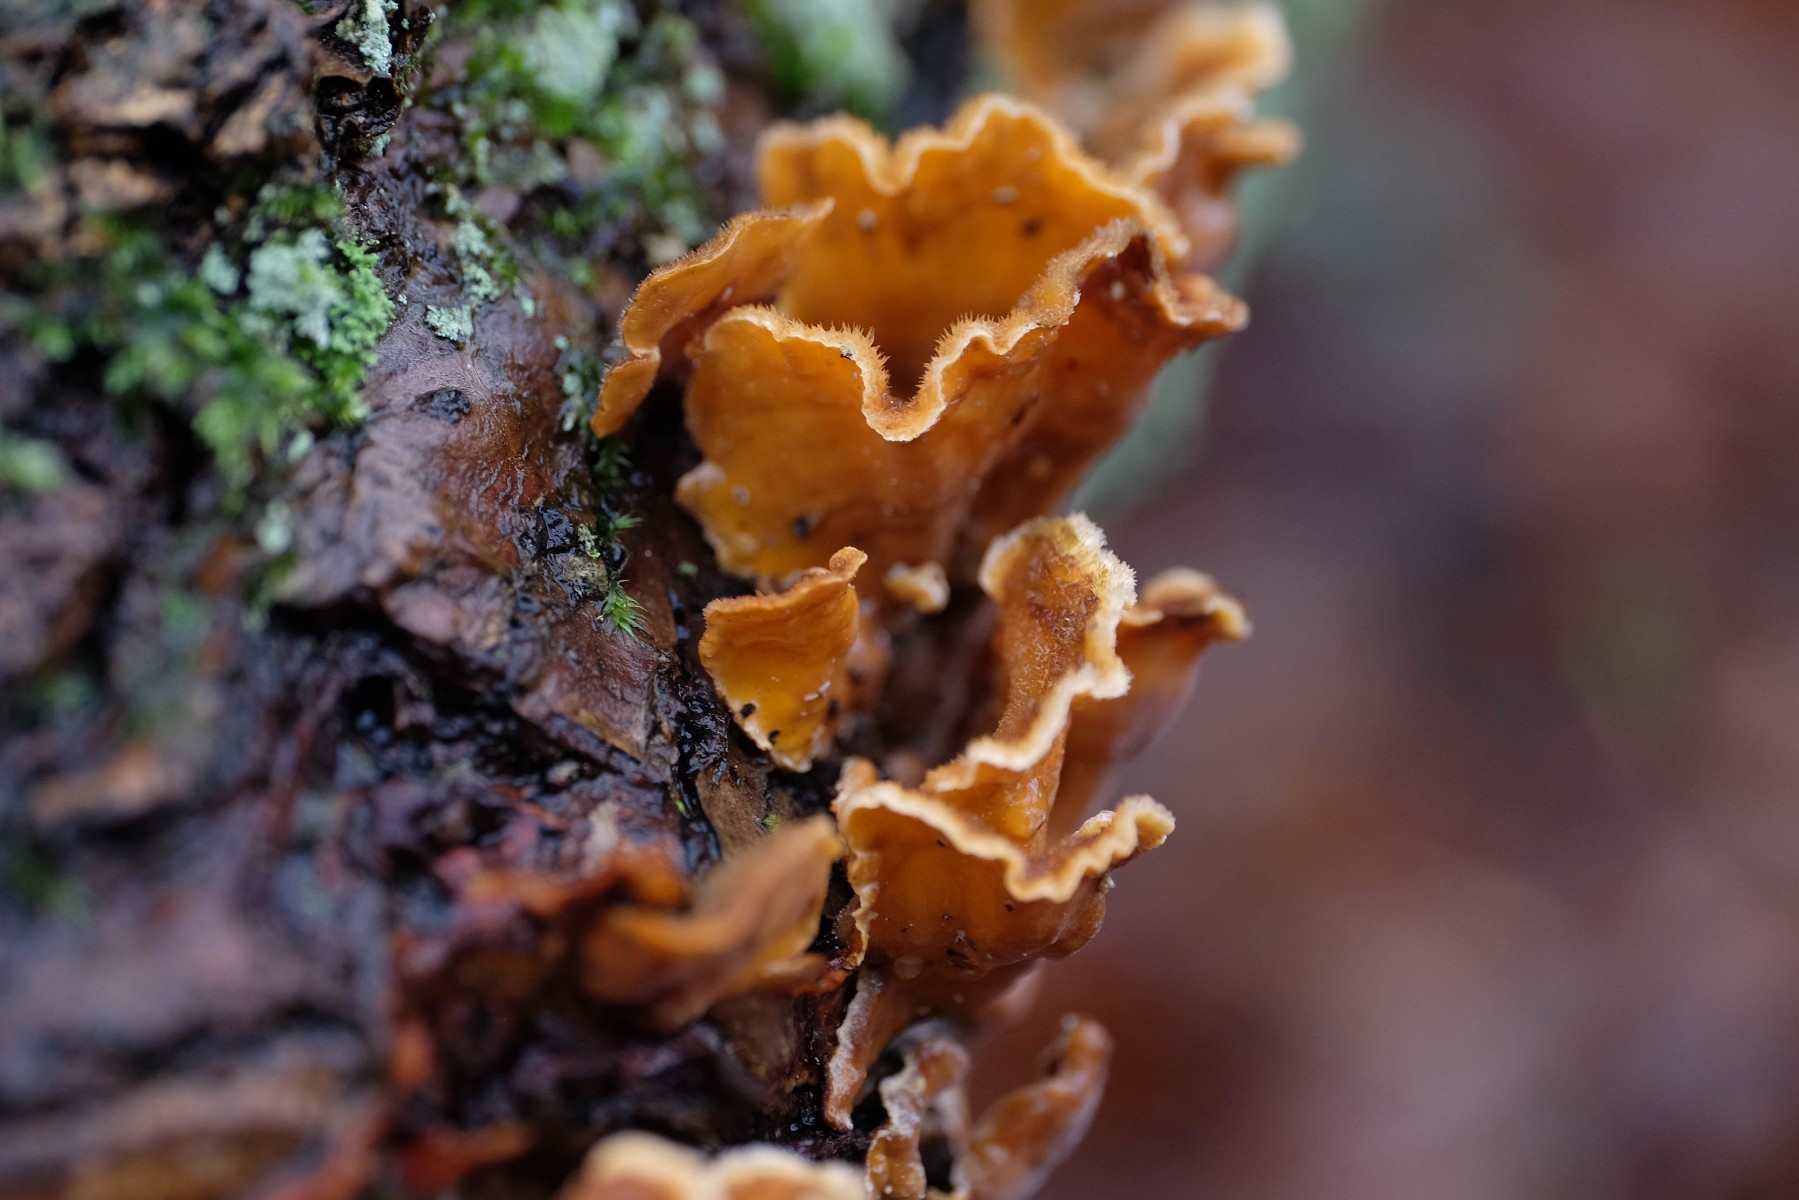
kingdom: Fungi
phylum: Basidiomycota
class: Agaricomycetes
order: Russulales
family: Stereaceae
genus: Stereum
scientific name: Stereum hirsutum
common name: håret lædersvamp
